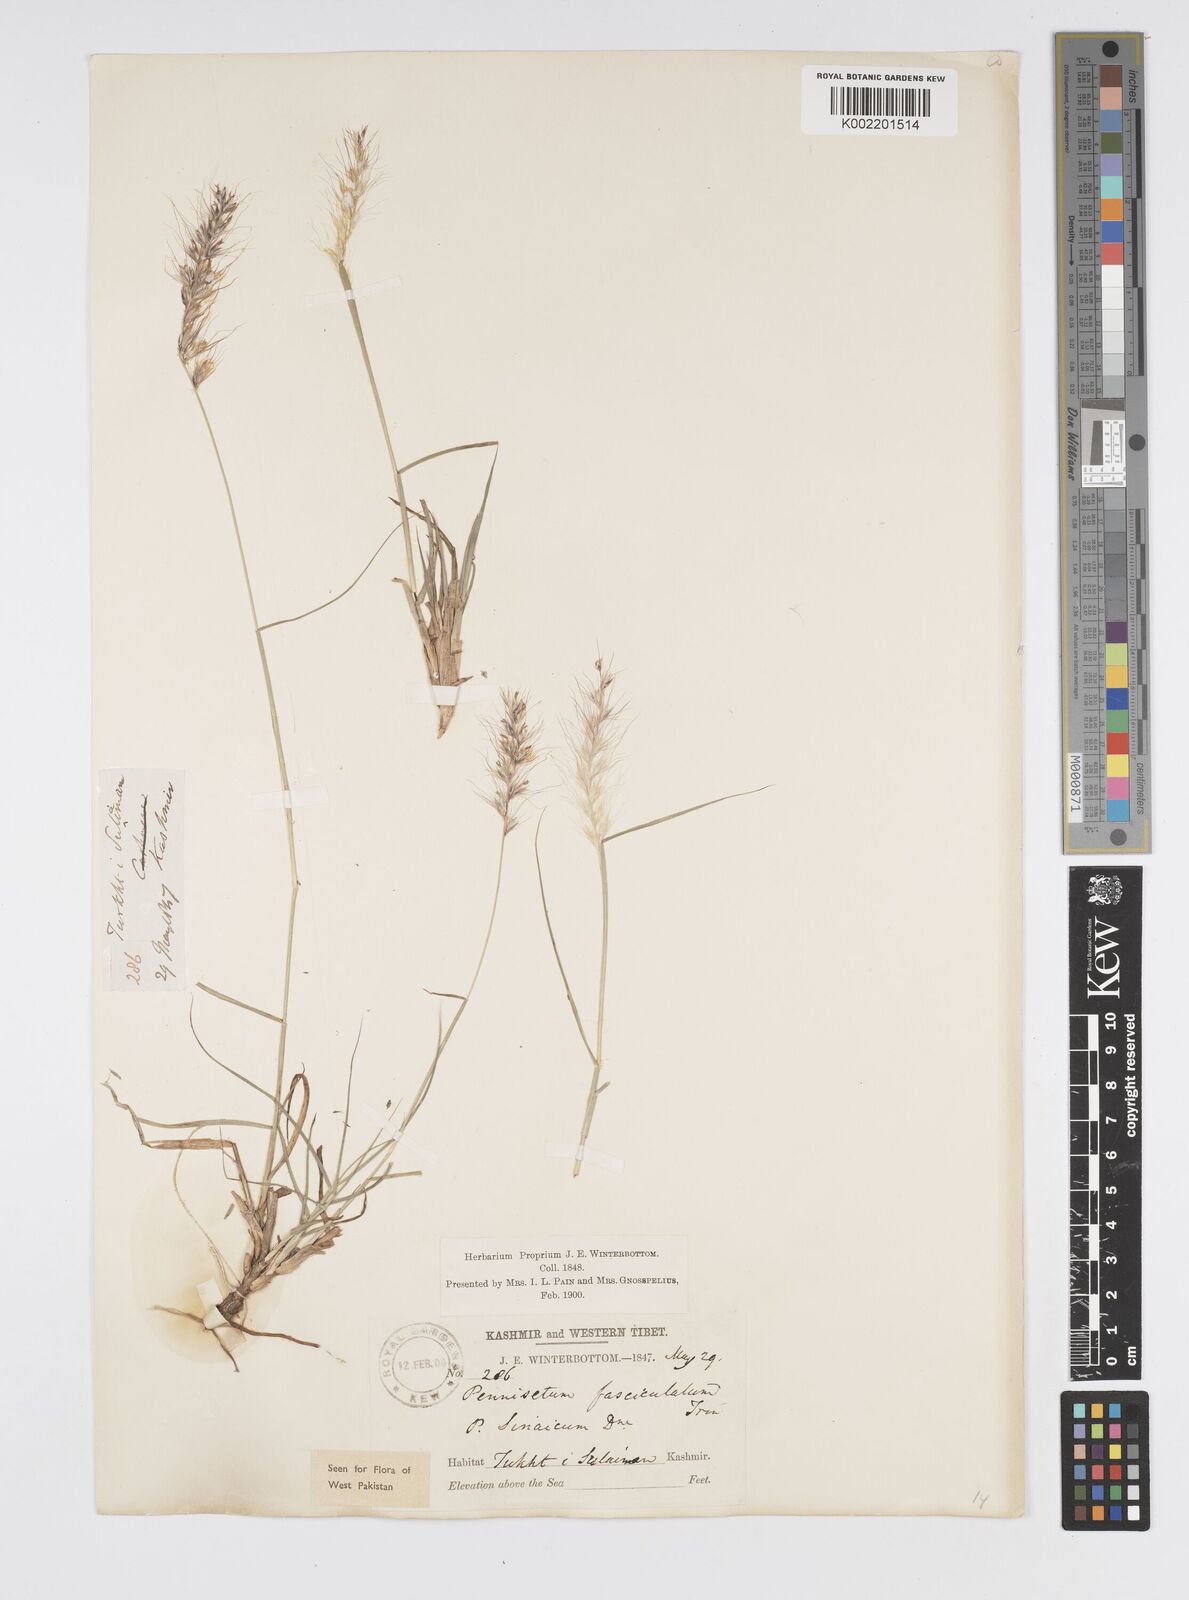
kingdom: Plantae
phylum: Tracheophyta
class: Liliopsida
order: Poales
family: Poaceae
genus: Cenchrus
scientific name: Cenchrus orientalis
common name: Oriental fountain grass
